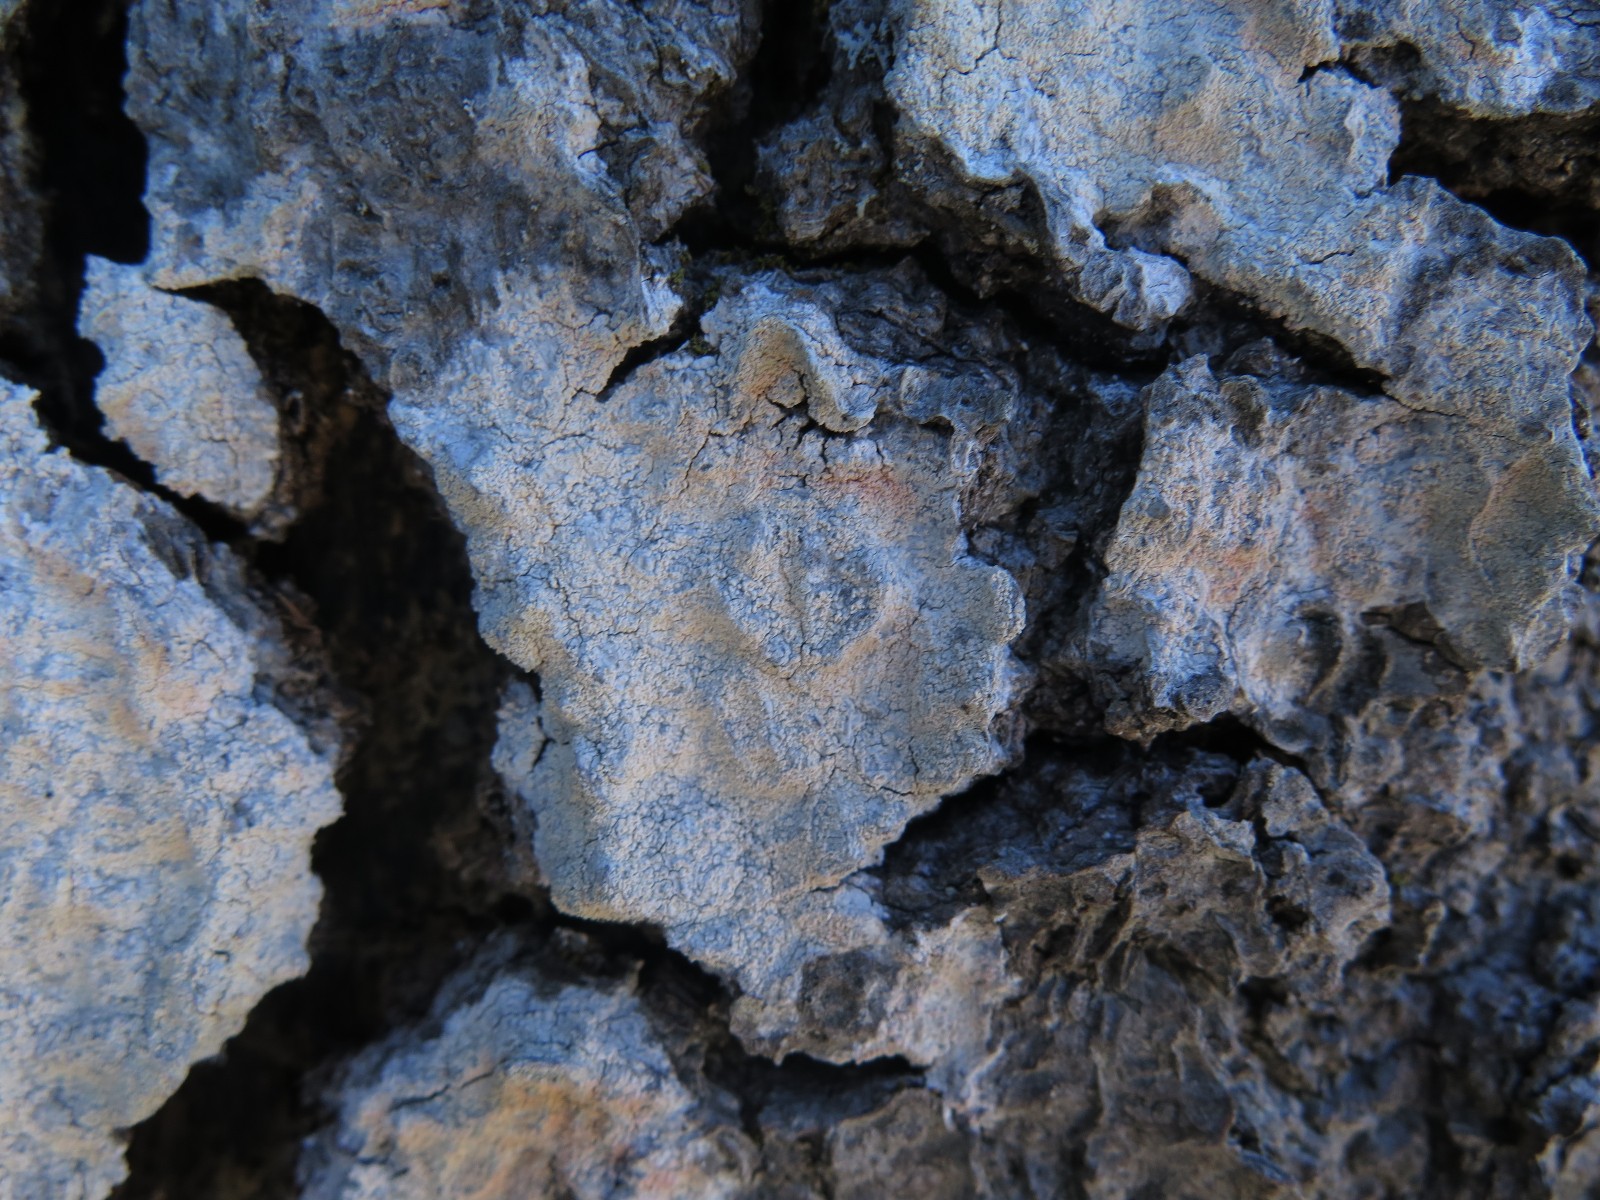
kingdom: Fungi
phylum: Ascomycota
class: Lecanoromycetes
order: Ostropales
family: Phlyctidaceae
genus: Phlyctis
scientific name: Phlyctis argena
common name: almindelig sølvlav
